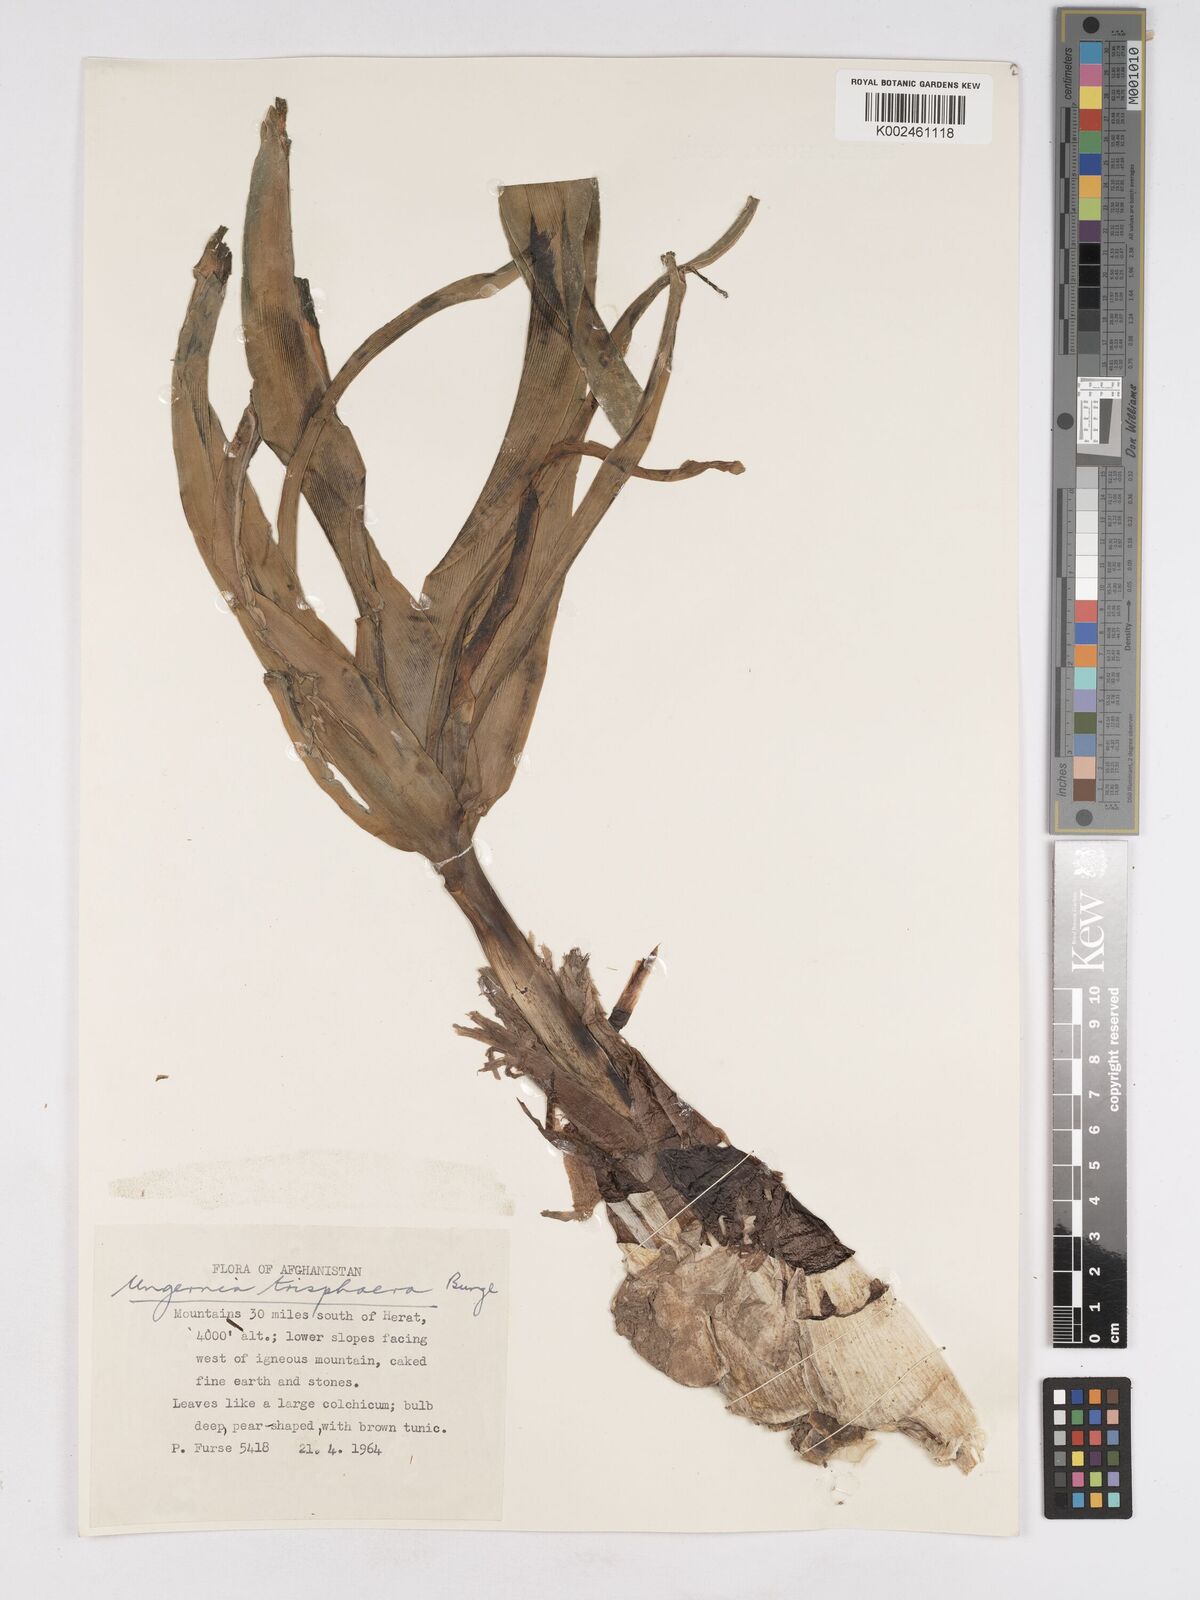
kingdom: Plantae
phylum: Tracheophyta
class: Liliopsida
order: Asparagales
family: Amaryllidaceae
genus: Ungernia
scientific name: Ungernia trisphaera
